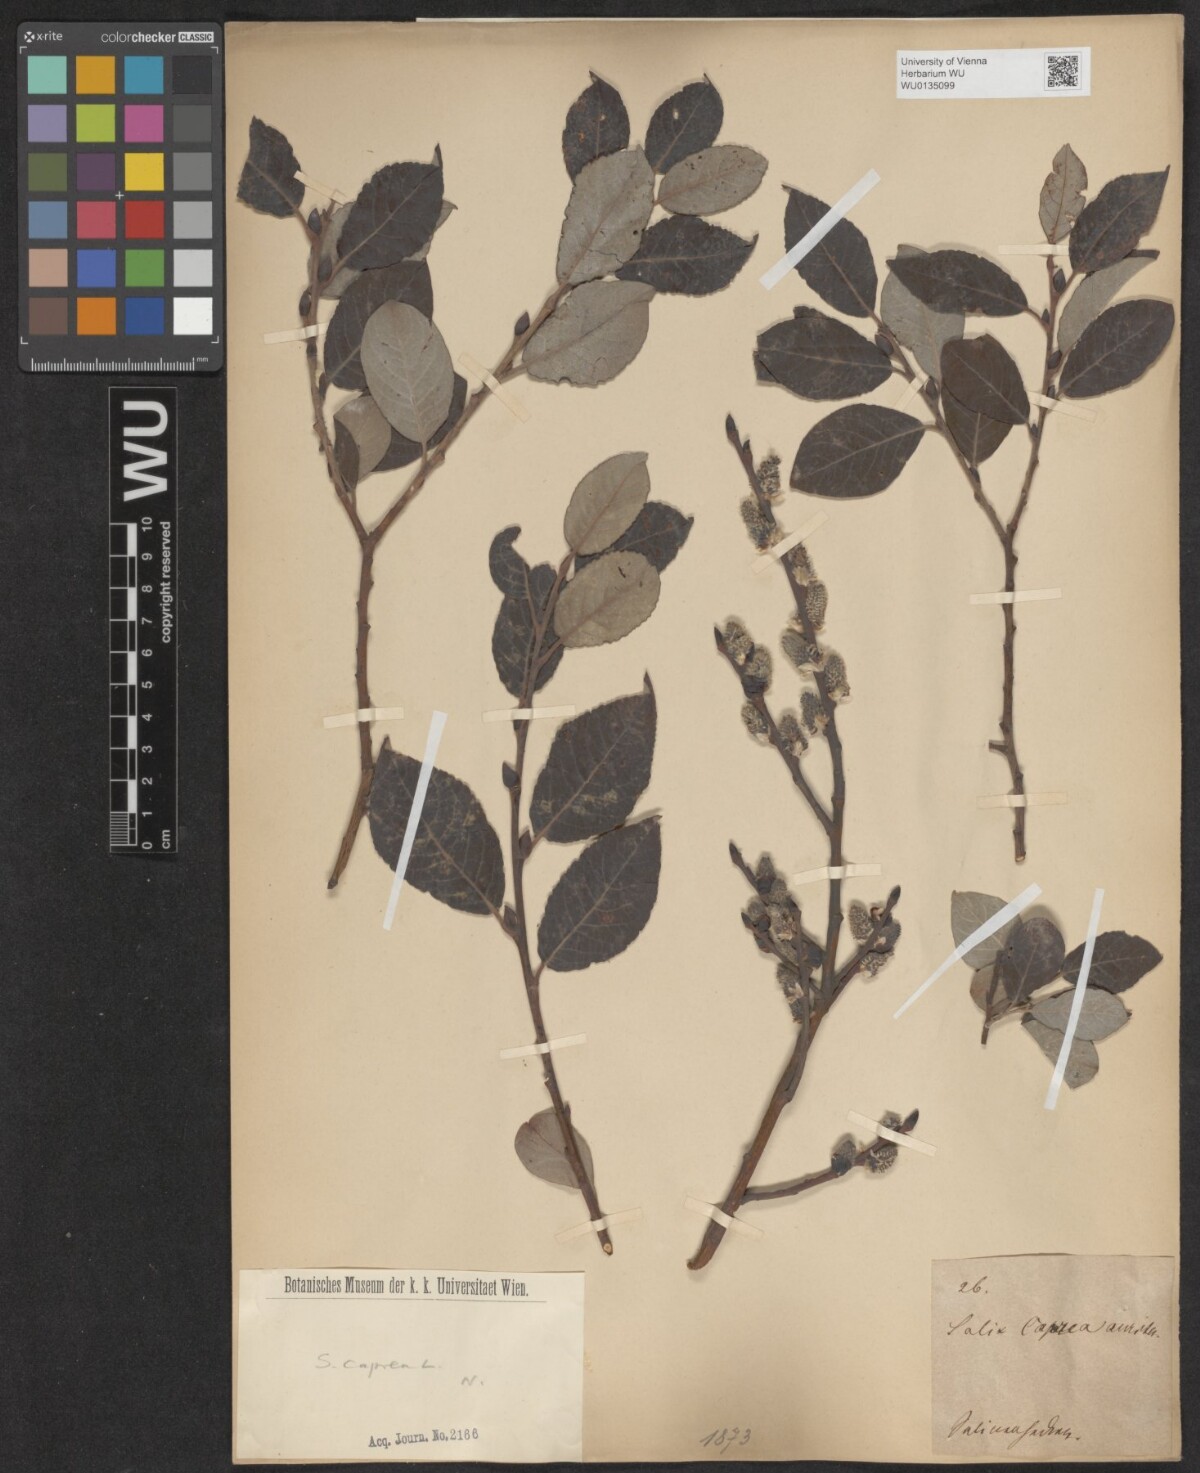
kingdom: Plantae
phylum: Tracheophyta
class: Magnoliopsida
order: Malpighiales
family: Salicaceae
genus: Salix
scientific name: Salix caprea
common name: Goat willow
